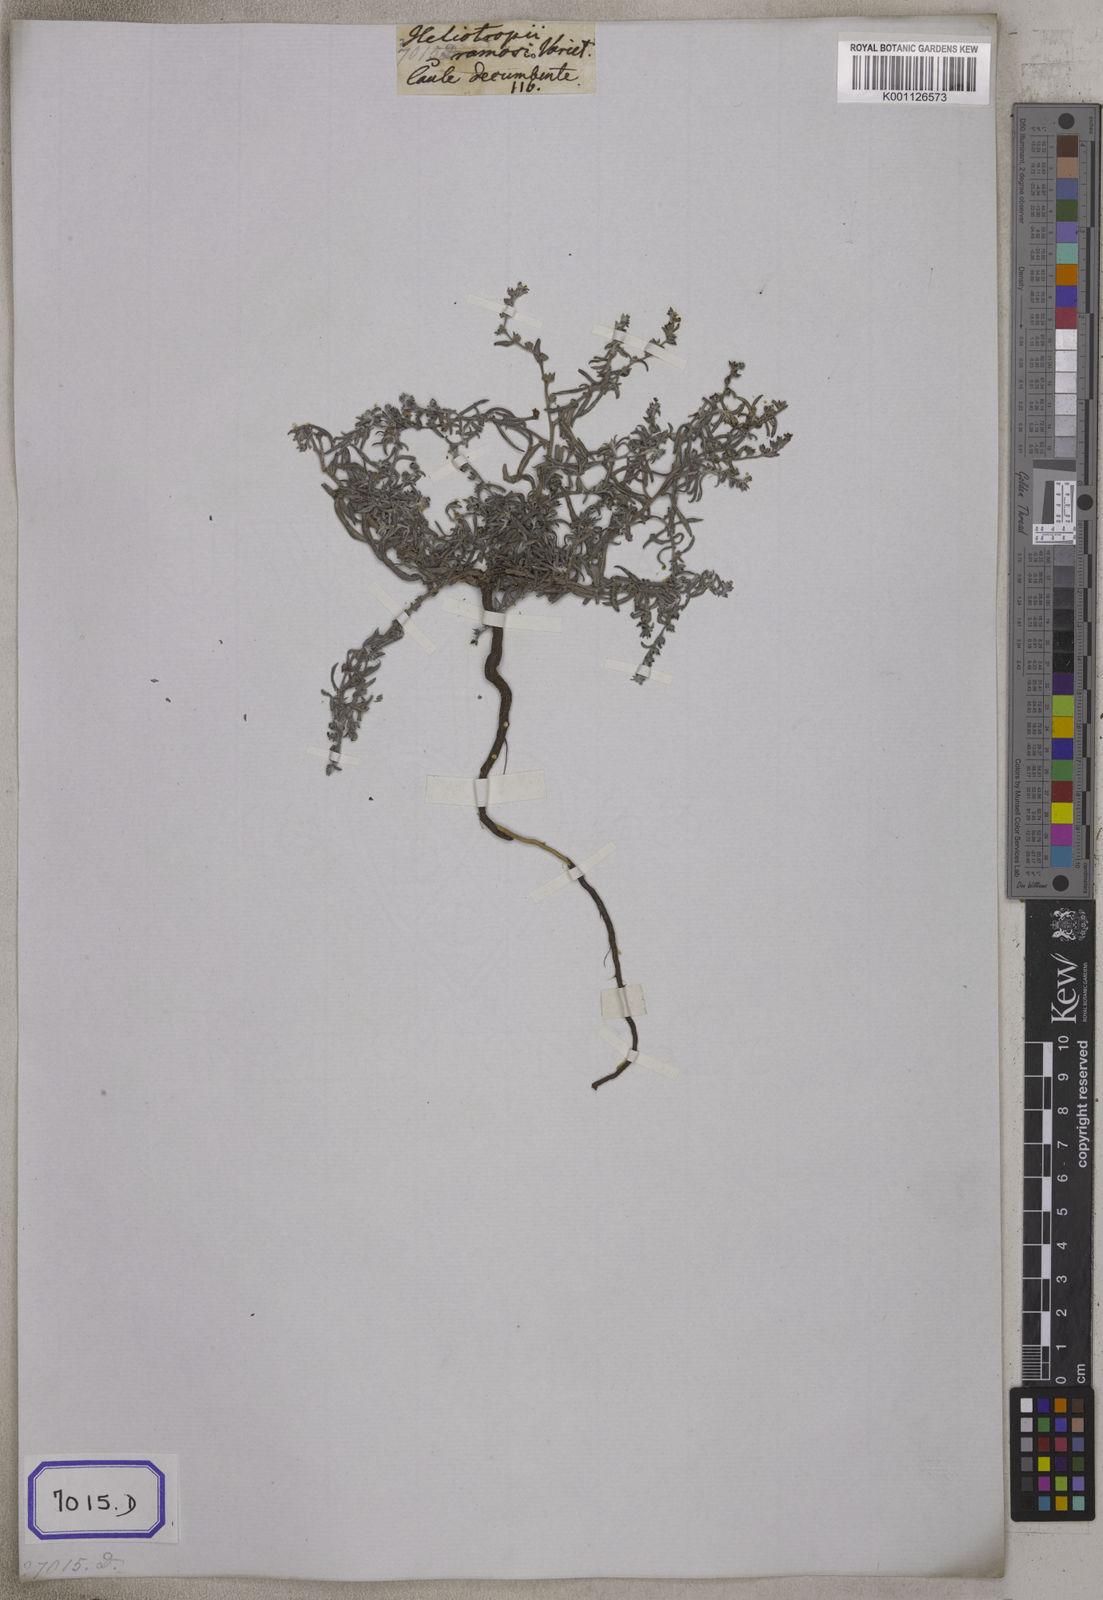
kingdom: Plantae
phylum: Tracheophyta
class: Magnoliopsida
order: Boraginales
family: Heliotropiaceae
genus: Euploca
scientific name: Euploca bracteata
